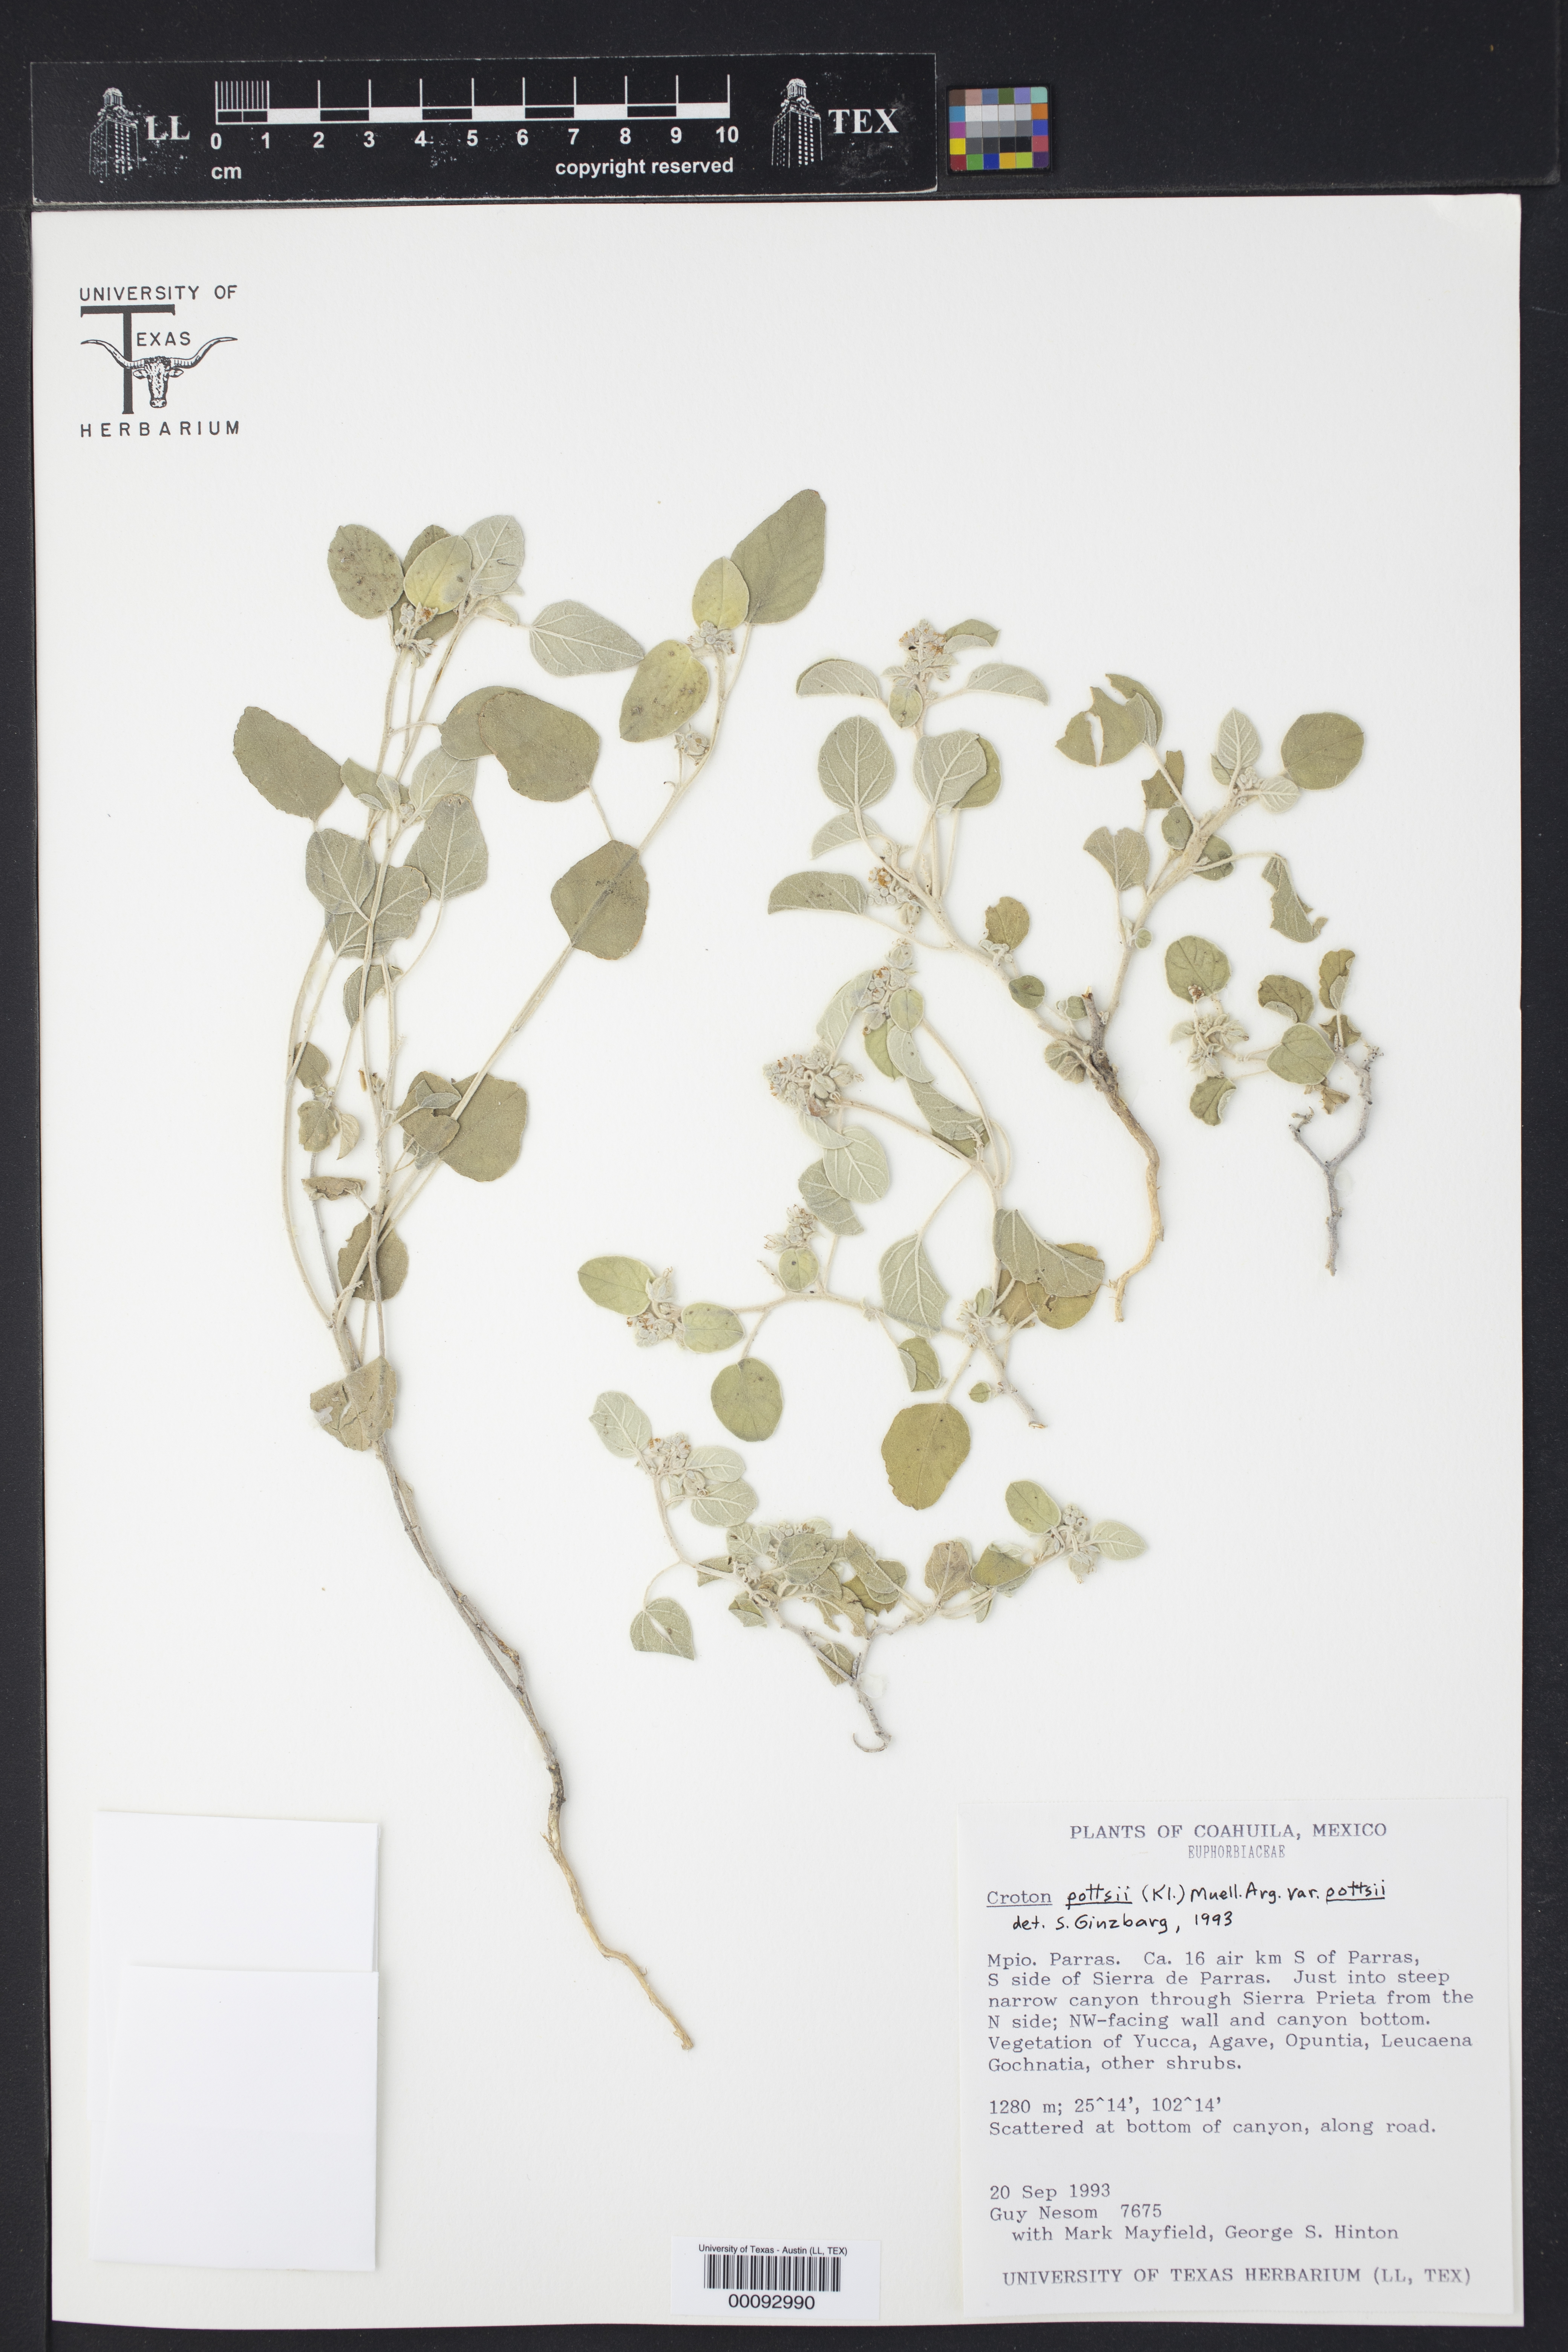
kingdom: Plantae
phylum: Tracheophyta
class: Magnoliopsida
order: Malpighiales
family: Euphorbiaceae
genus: Croton
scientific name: Croton pottsii
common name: Leatherweed
